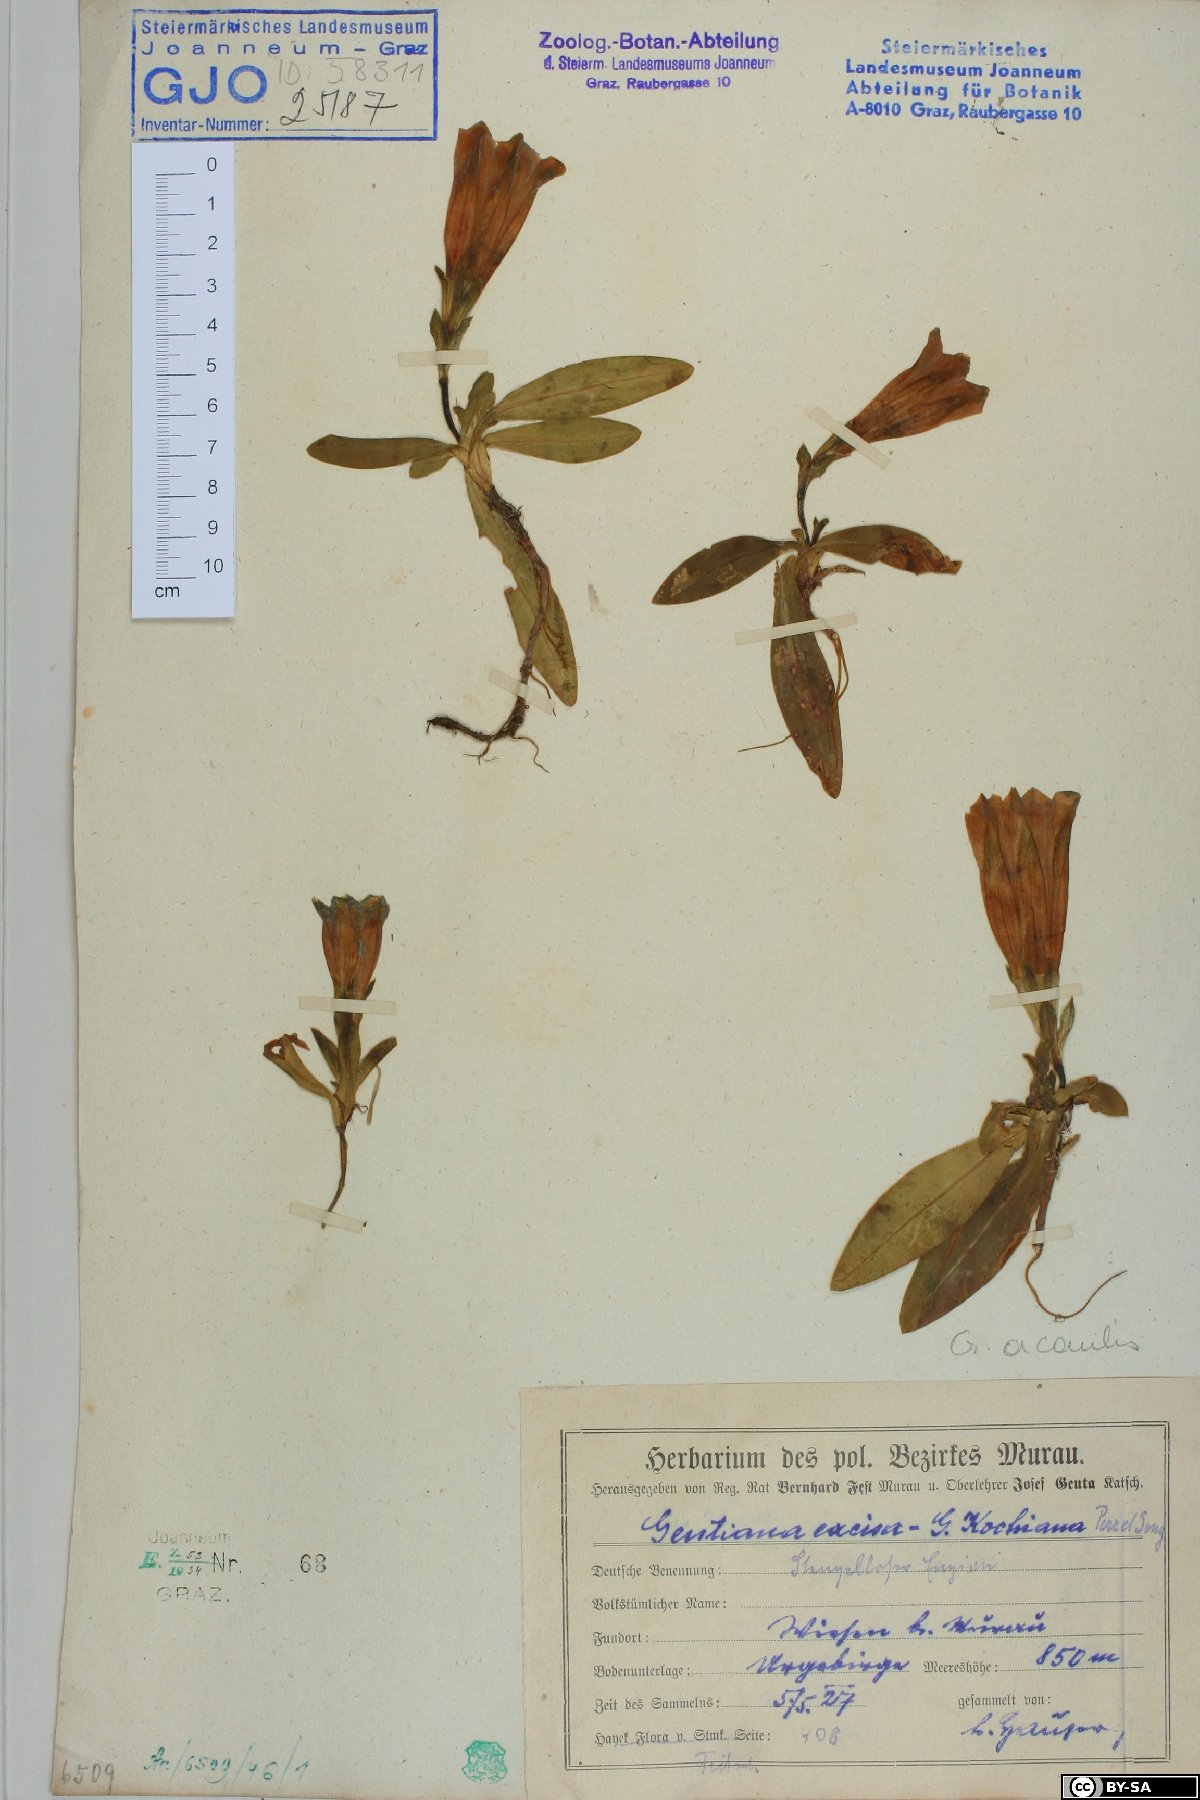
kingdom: Plantae
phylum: Tracheophyta
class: Magnoliopsida
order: Gentianales
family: Gentianaceae
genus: Gentiana
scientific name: Gentiana acaulis
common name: Trumpet gentian
